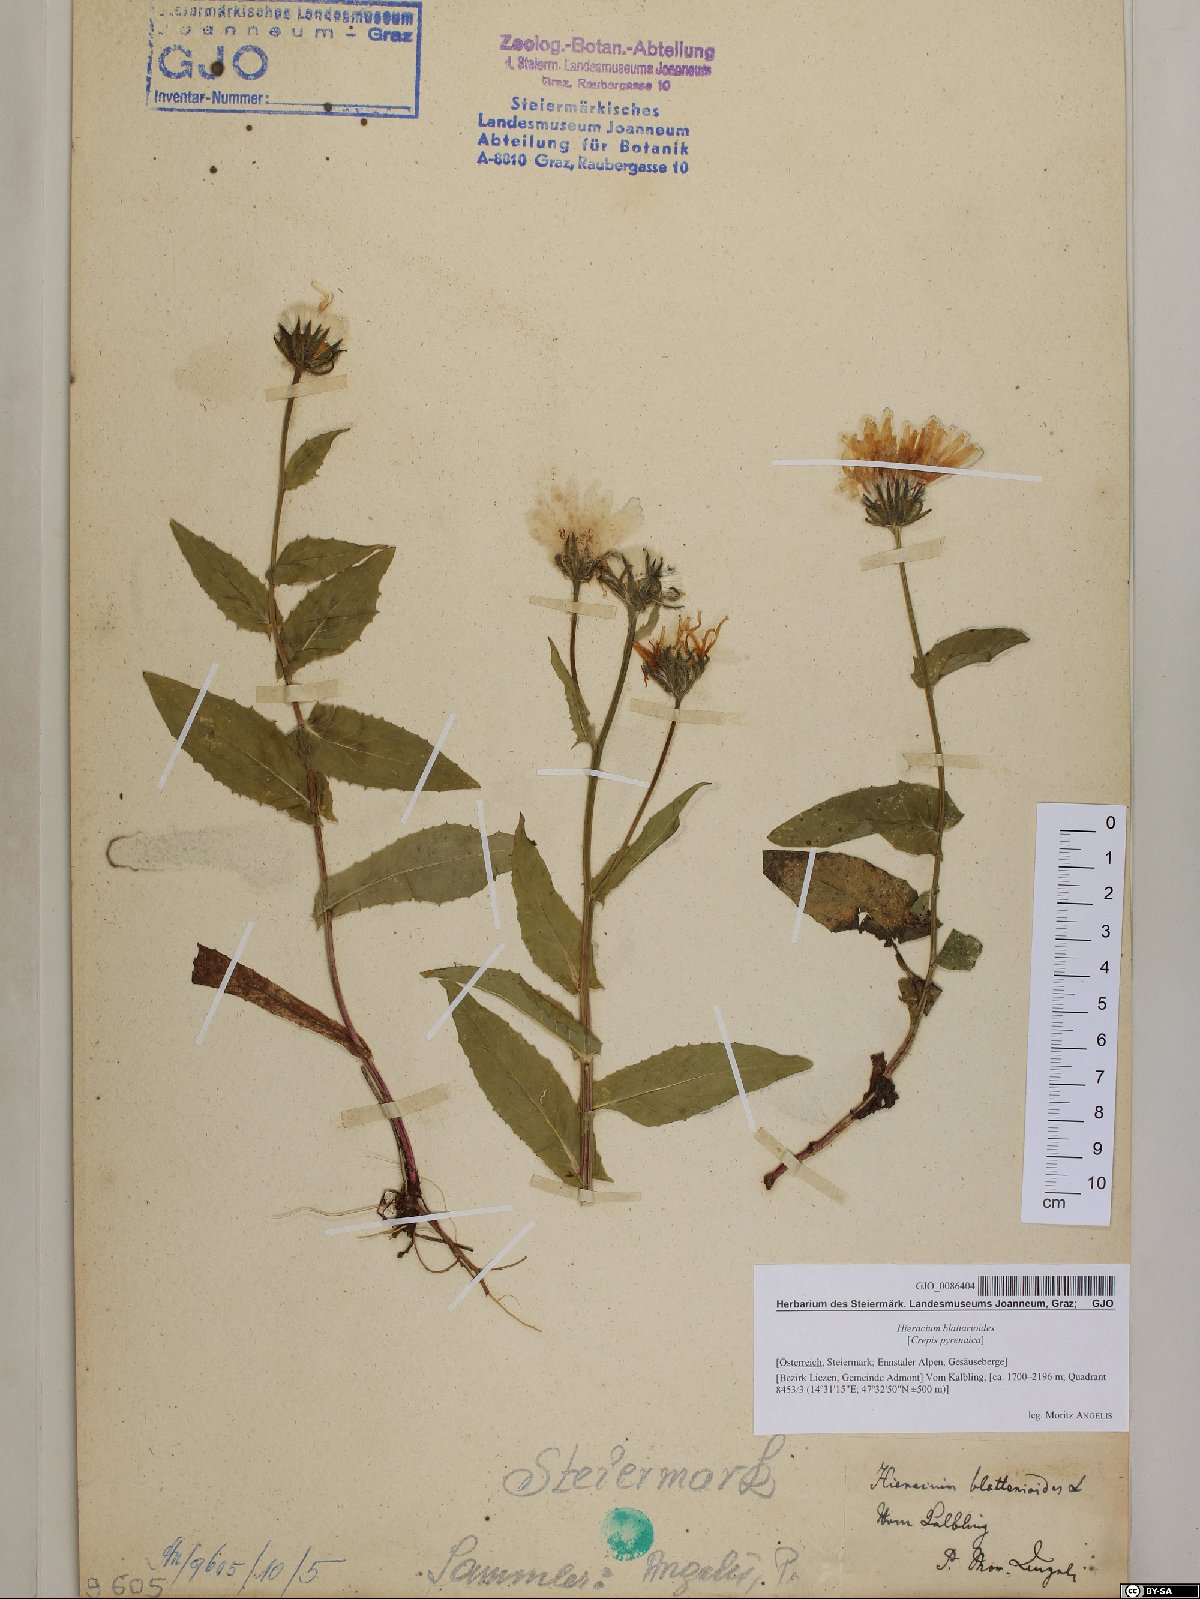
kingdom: Plantae
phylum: Tracheophyta
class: Magnoliopsida
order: Asterales
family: Asteraceae
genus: Crepis
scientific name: Crepis blattarioides
